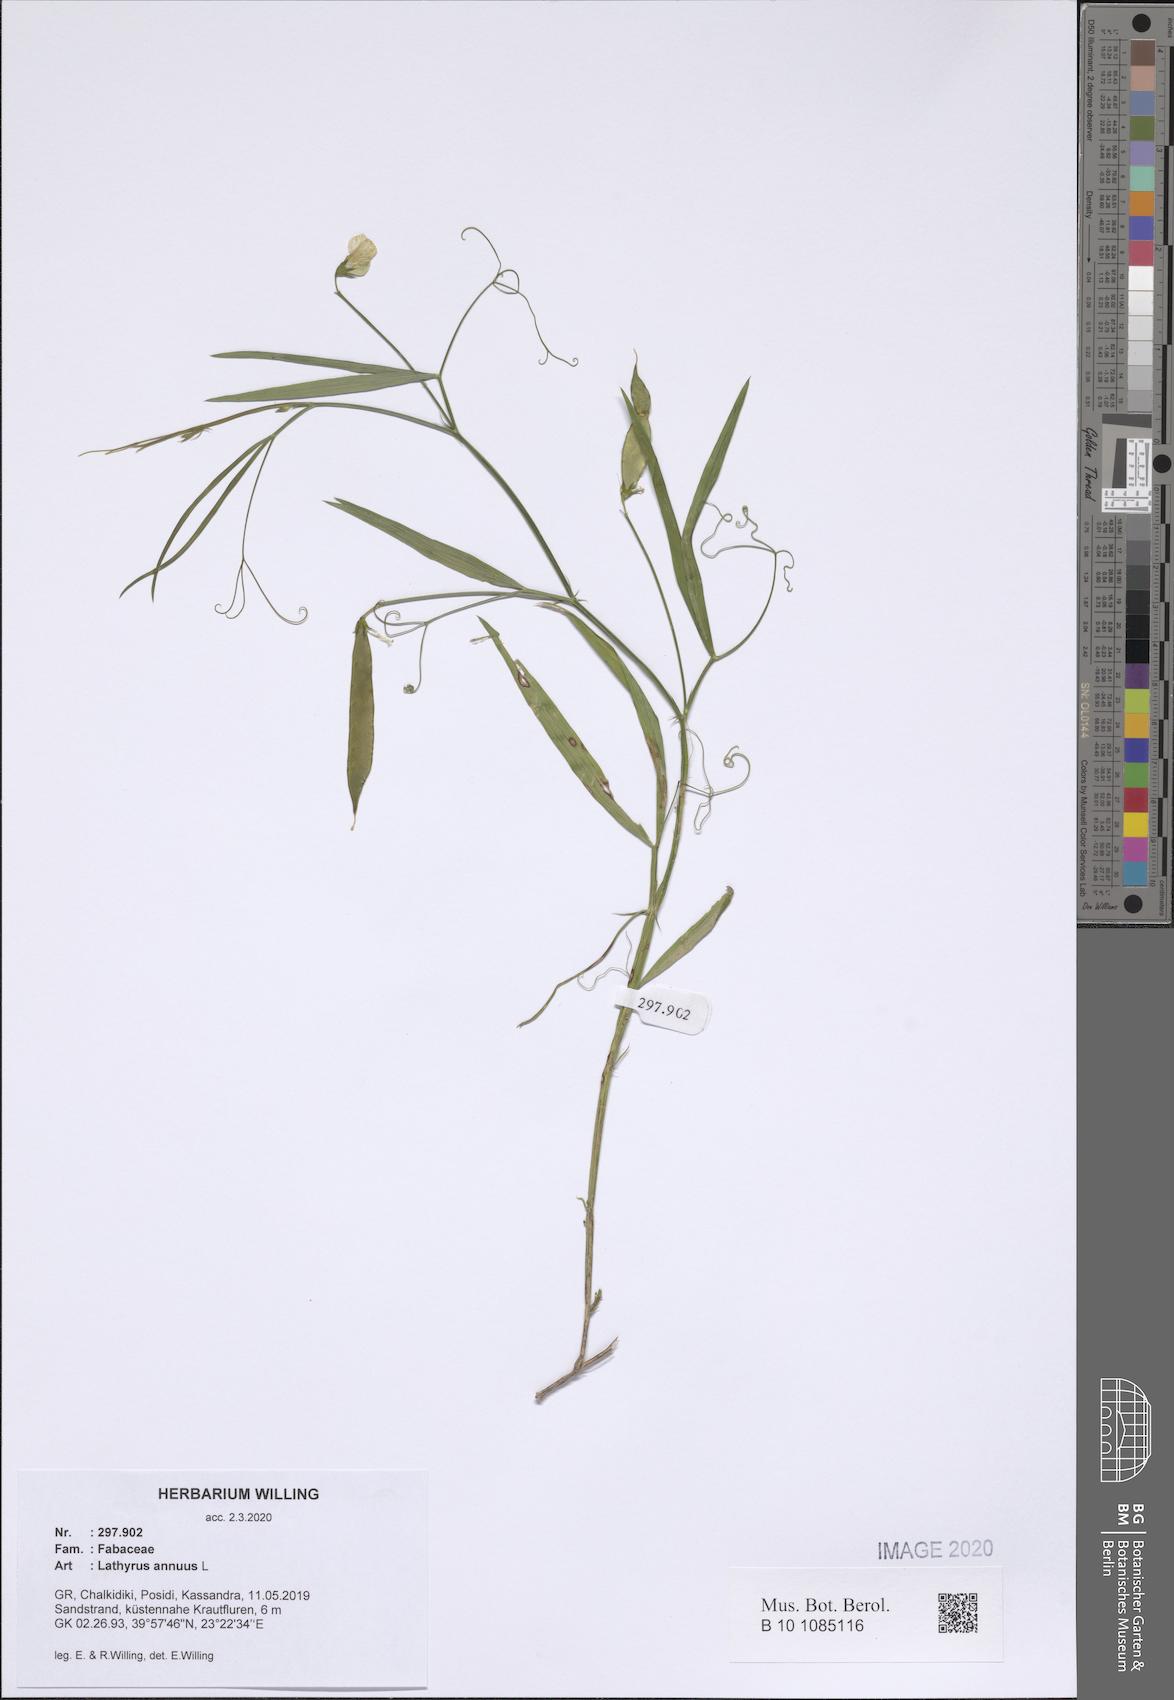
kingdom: Plantae
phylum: Tracheophyta
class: Magnoliopsida
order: Fabales
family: Fabaceae
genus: Lathyrus
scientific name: Lathyrus annuus
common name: Fodder pea
